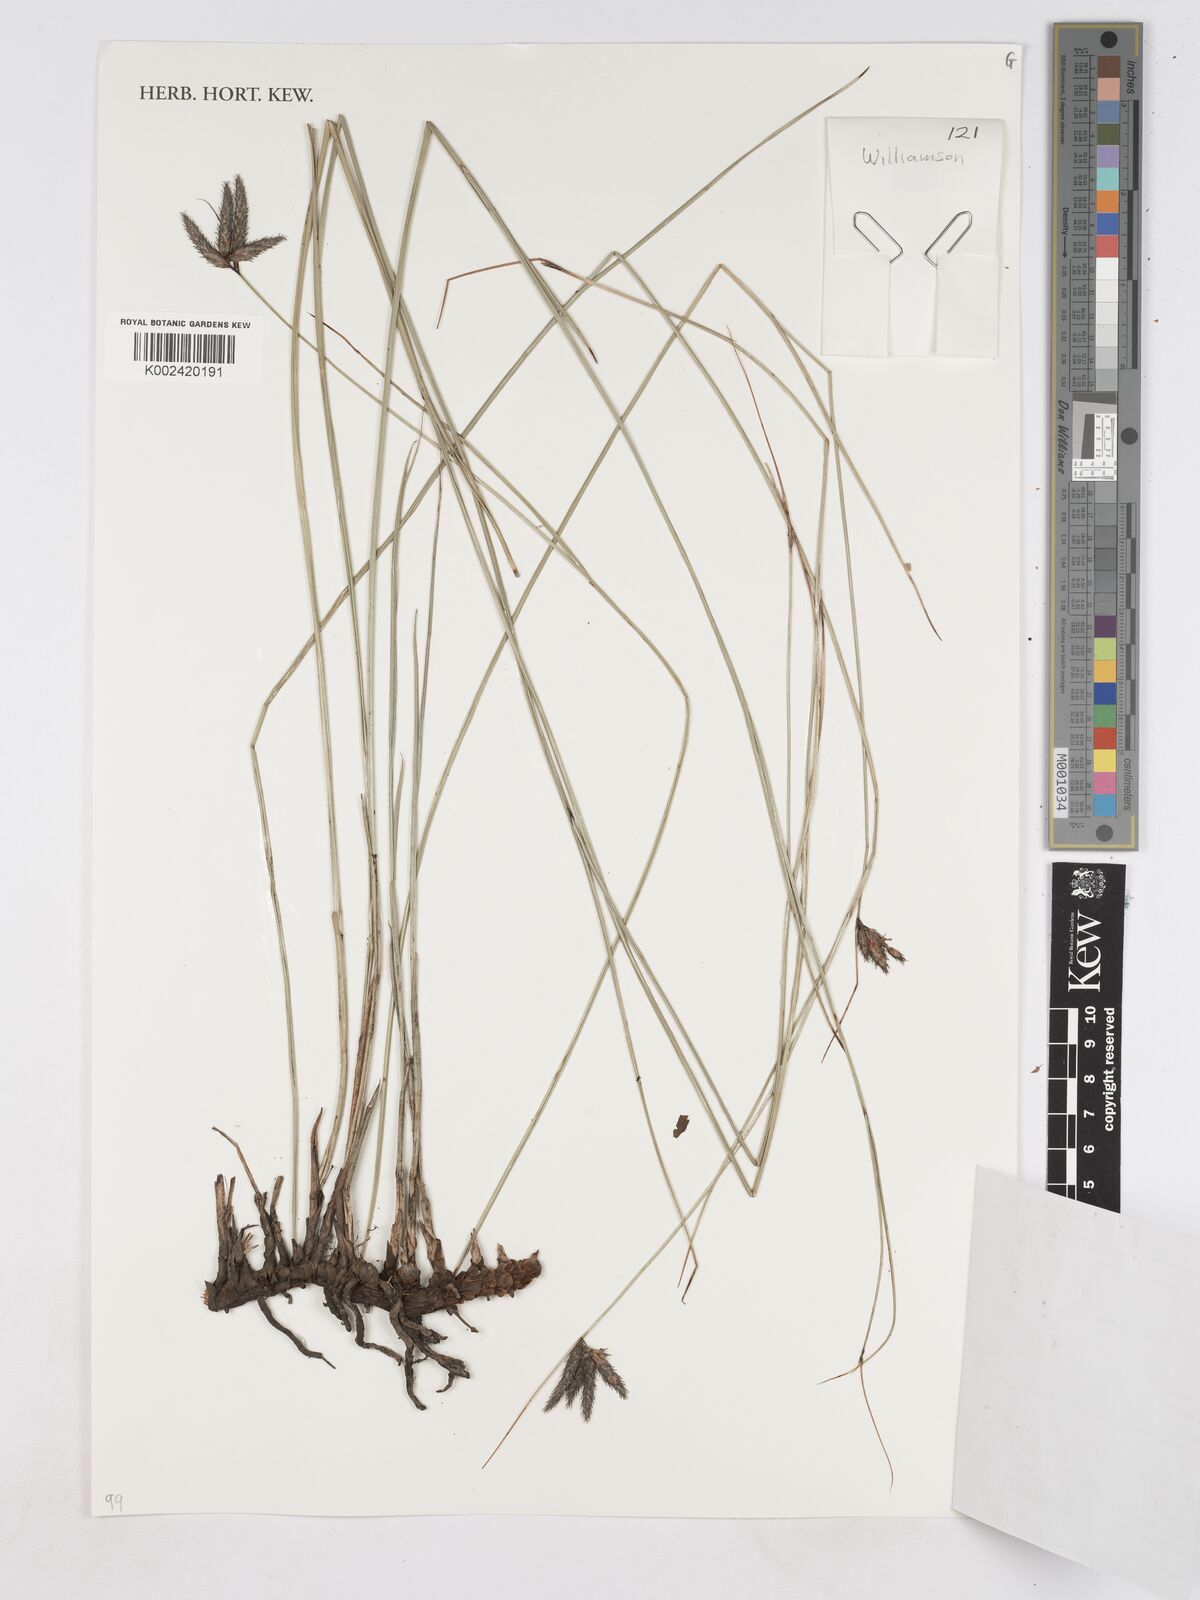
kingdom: Plantae
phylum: Tracheophyta
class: Liliopsida
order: Poales
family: Cyperaceae
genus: Fuirena
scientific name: Fuirena coerulescens
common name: Blue umbrella-sedge
